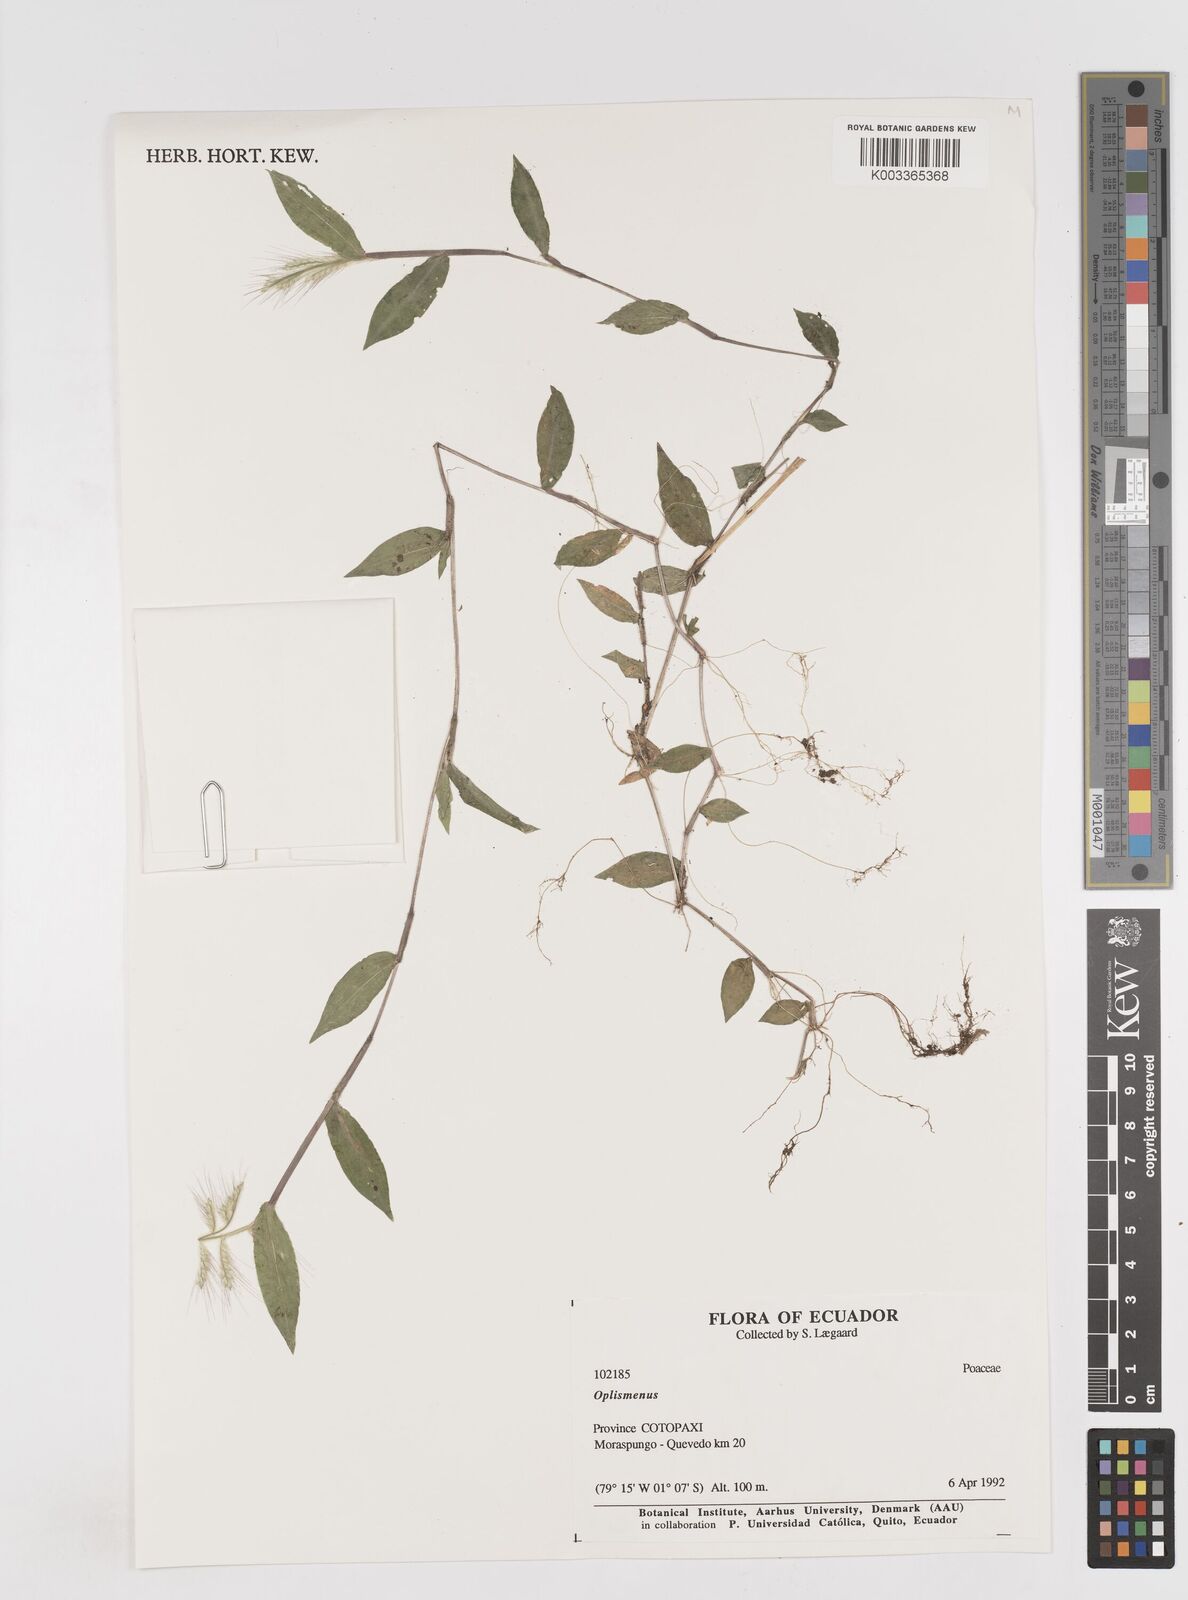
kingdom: Plantae
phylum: Tracheophyta
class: Liliopsida
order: Poales
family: Poaceae
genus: Oplismenus
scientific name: Oplismenus burmanni
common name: Burmann's basketgrass
